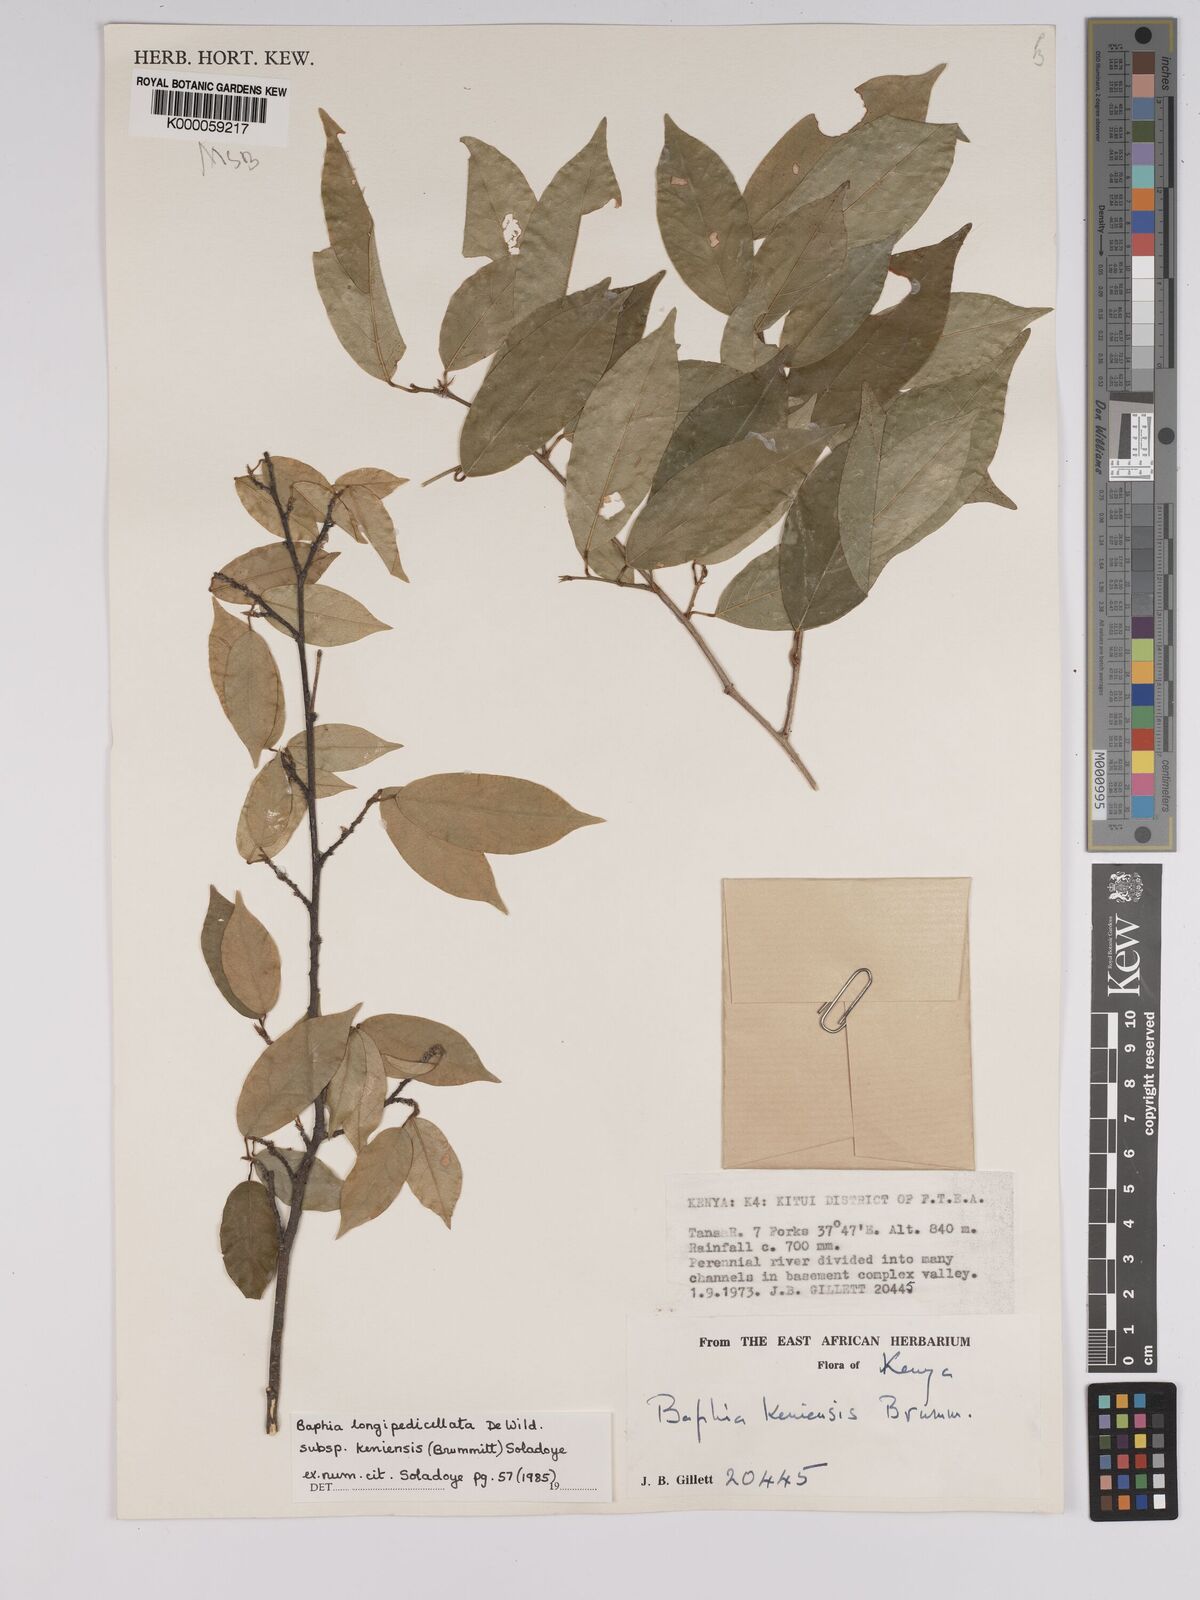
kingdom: Plantae
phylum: Tracheophyta
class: Magnoliopsida
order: Fabales
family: Fabaceae
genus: Baphia
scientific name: Baphia longipedicellata
